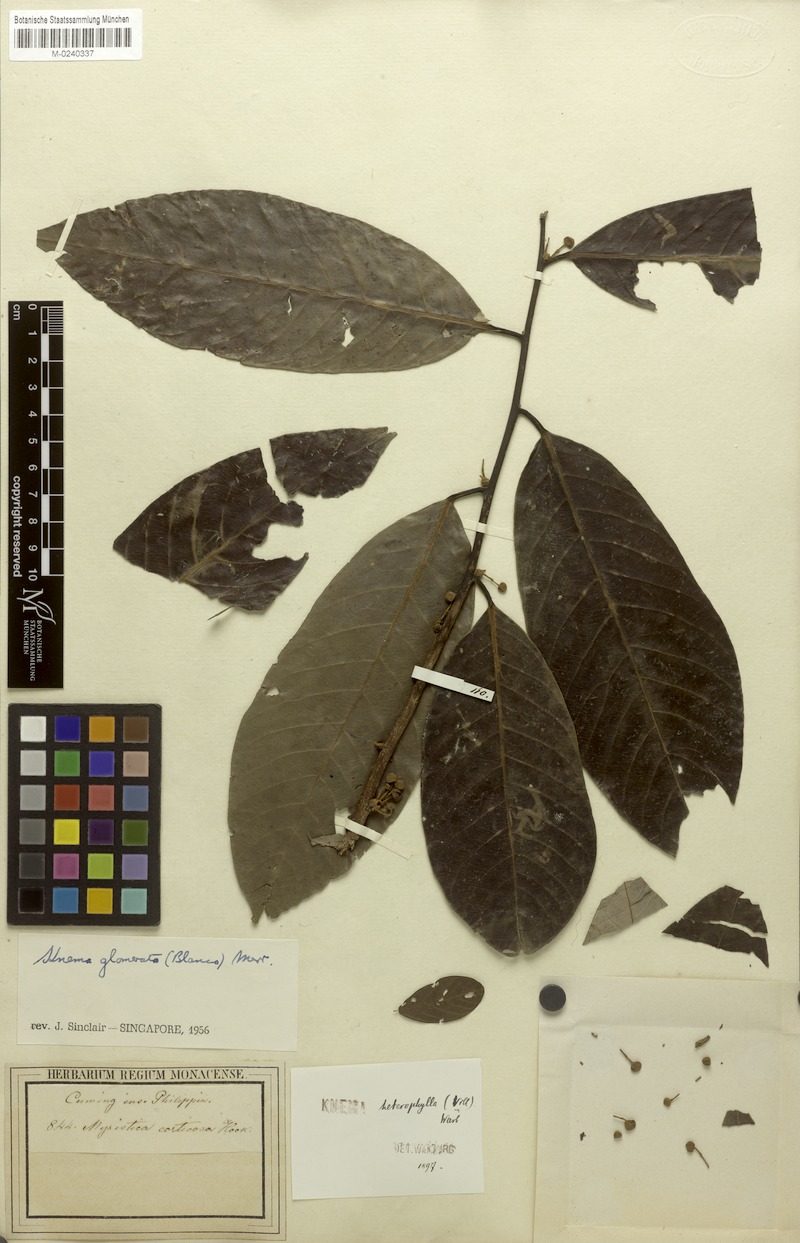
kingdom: Plantae
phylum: Tracheophyta
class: Magnoliopsida
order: Magnoliales
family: Myristicaceae
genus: Knema
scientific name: Knema glomerata
